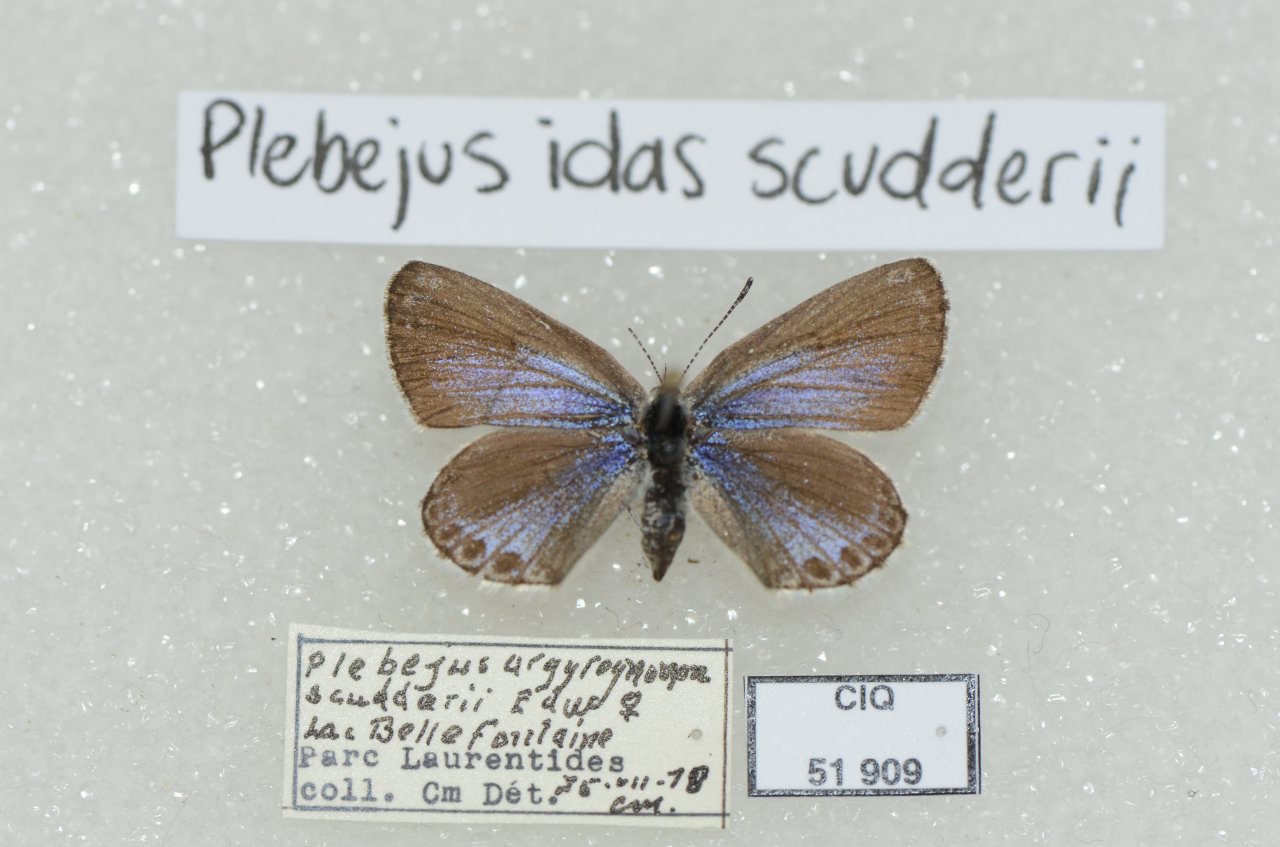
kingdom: Animalia
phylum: Arthropoda
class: Insecta
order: Lepidoptera
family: Lycaenidae
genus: Lycaeides
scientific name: Lycaeides idas
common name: Northern Blue
